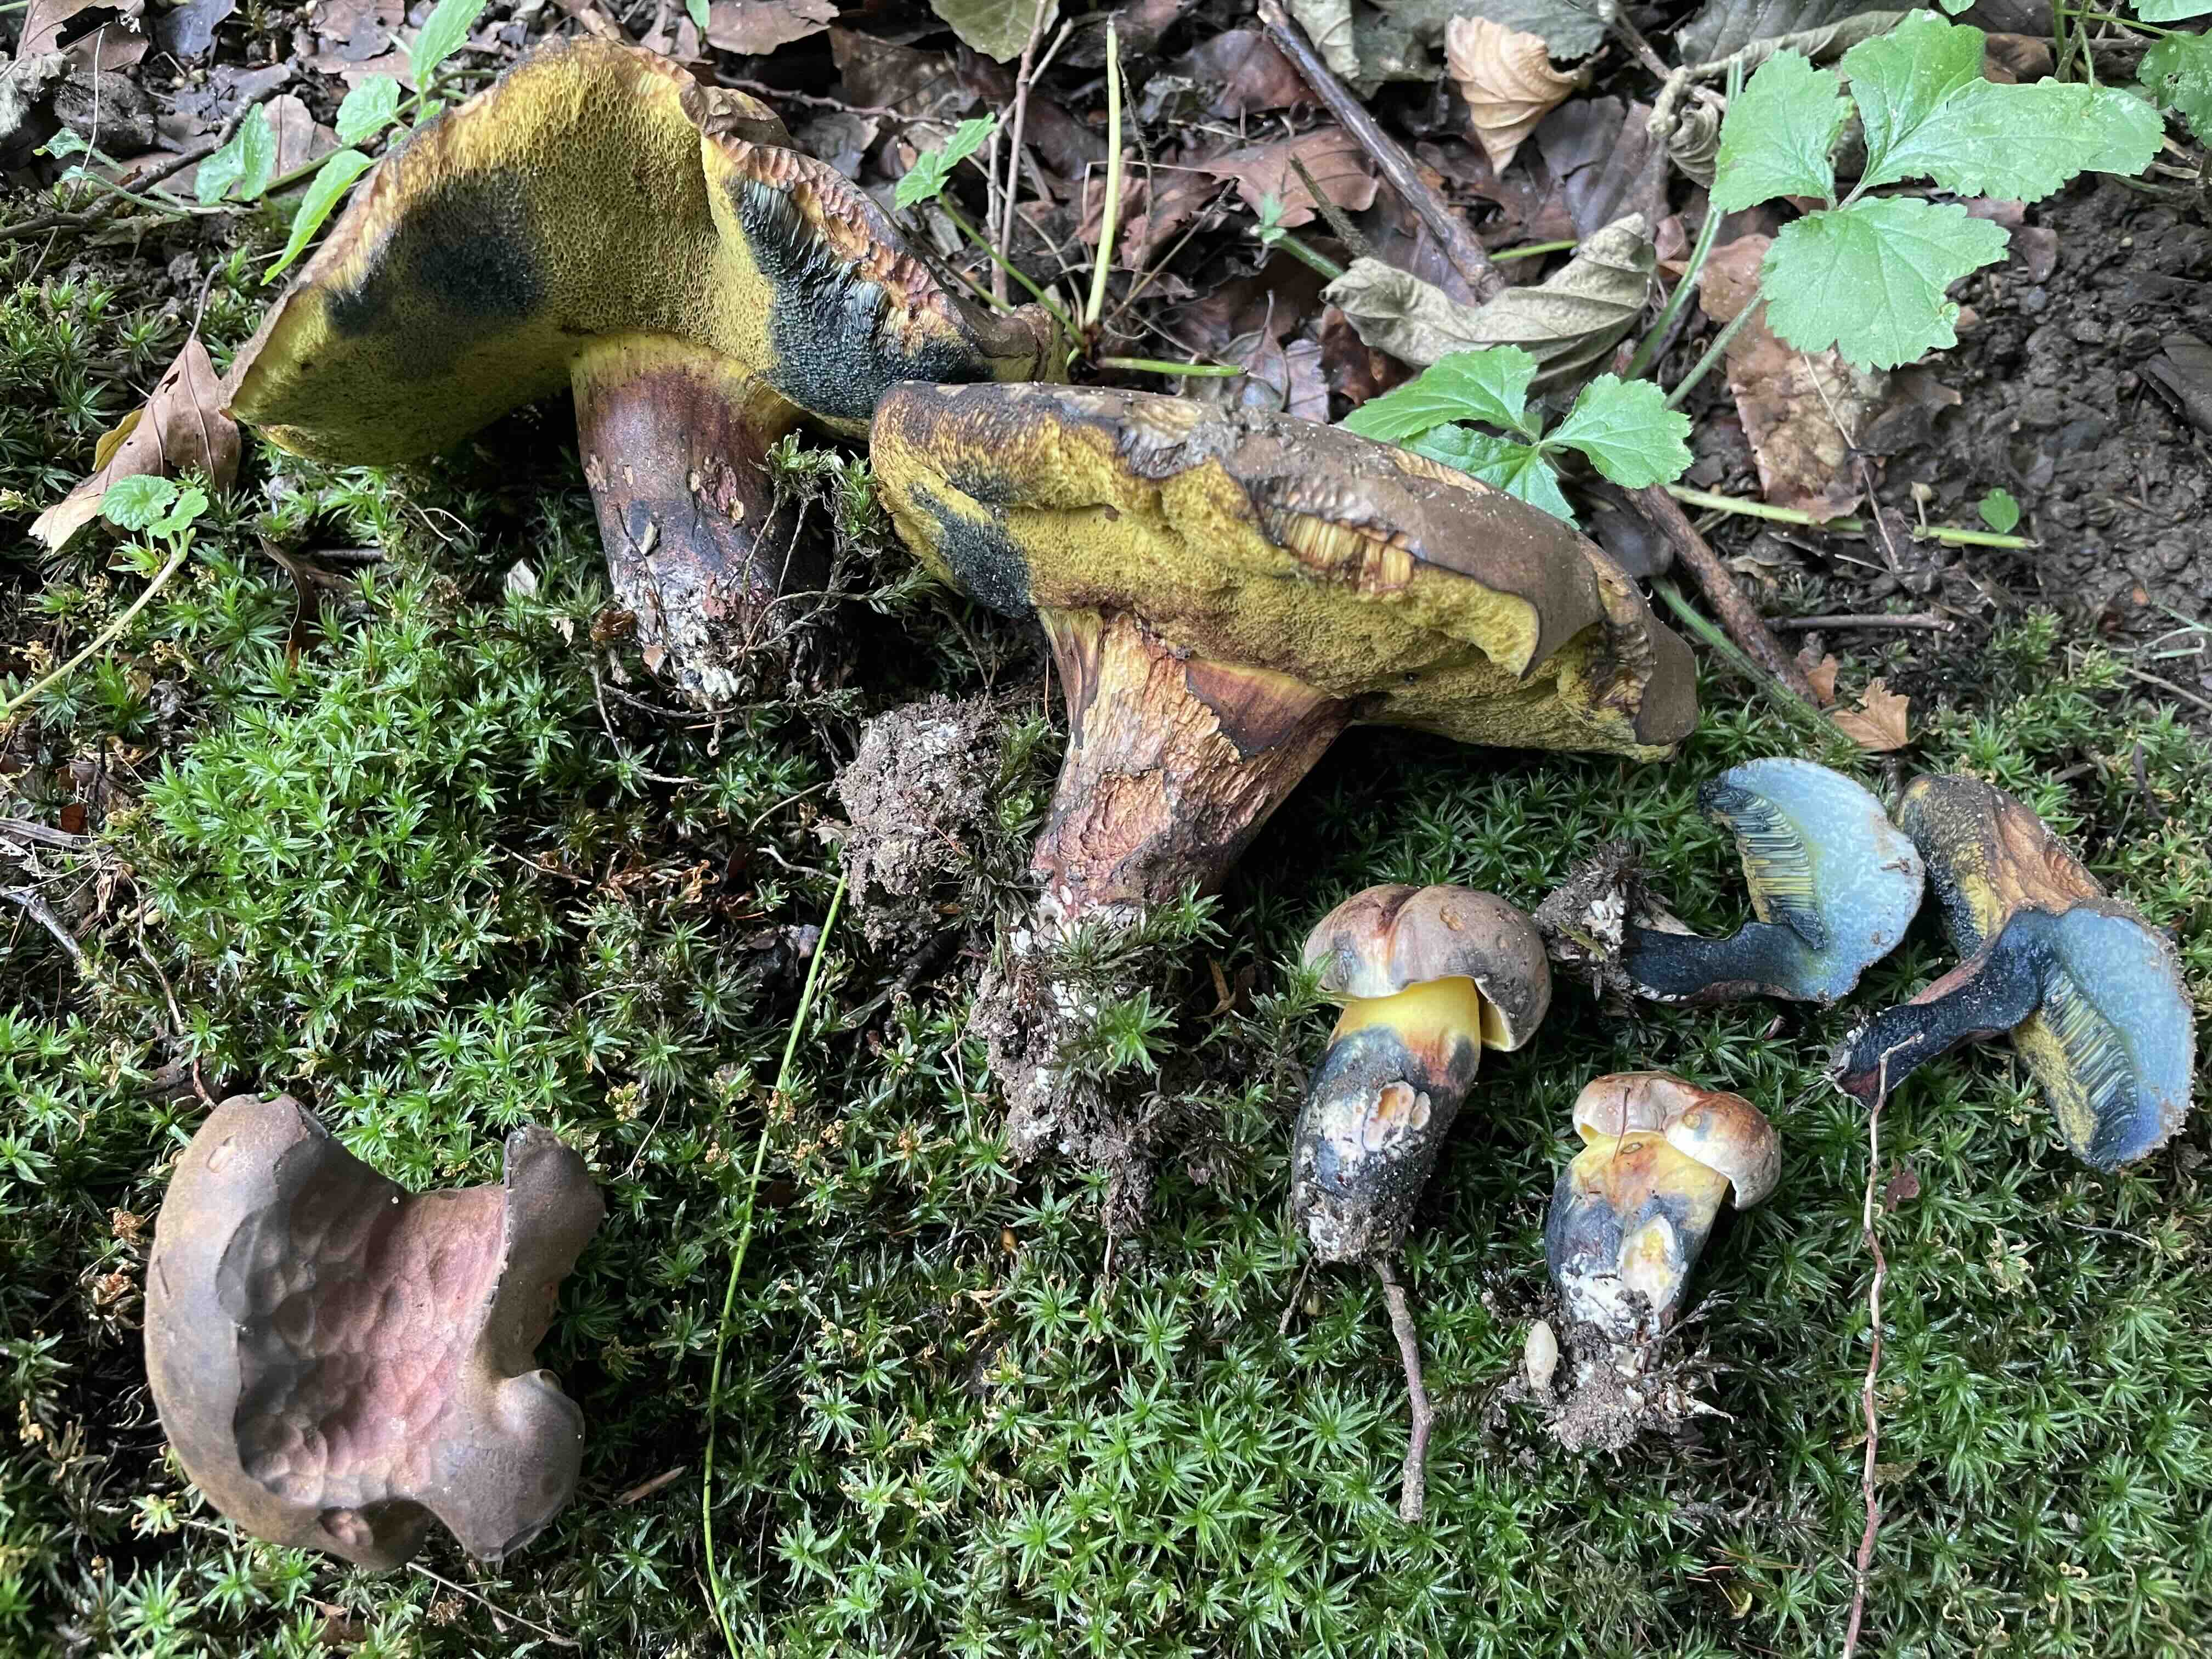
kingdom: Fungi
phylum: Basidiomycota
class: Agaricomycetes
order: Boletales
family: Boletaceae
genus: Cyanoboletus
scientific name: Cyanoboletus pulverulentus
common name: sortblånende rørhat
